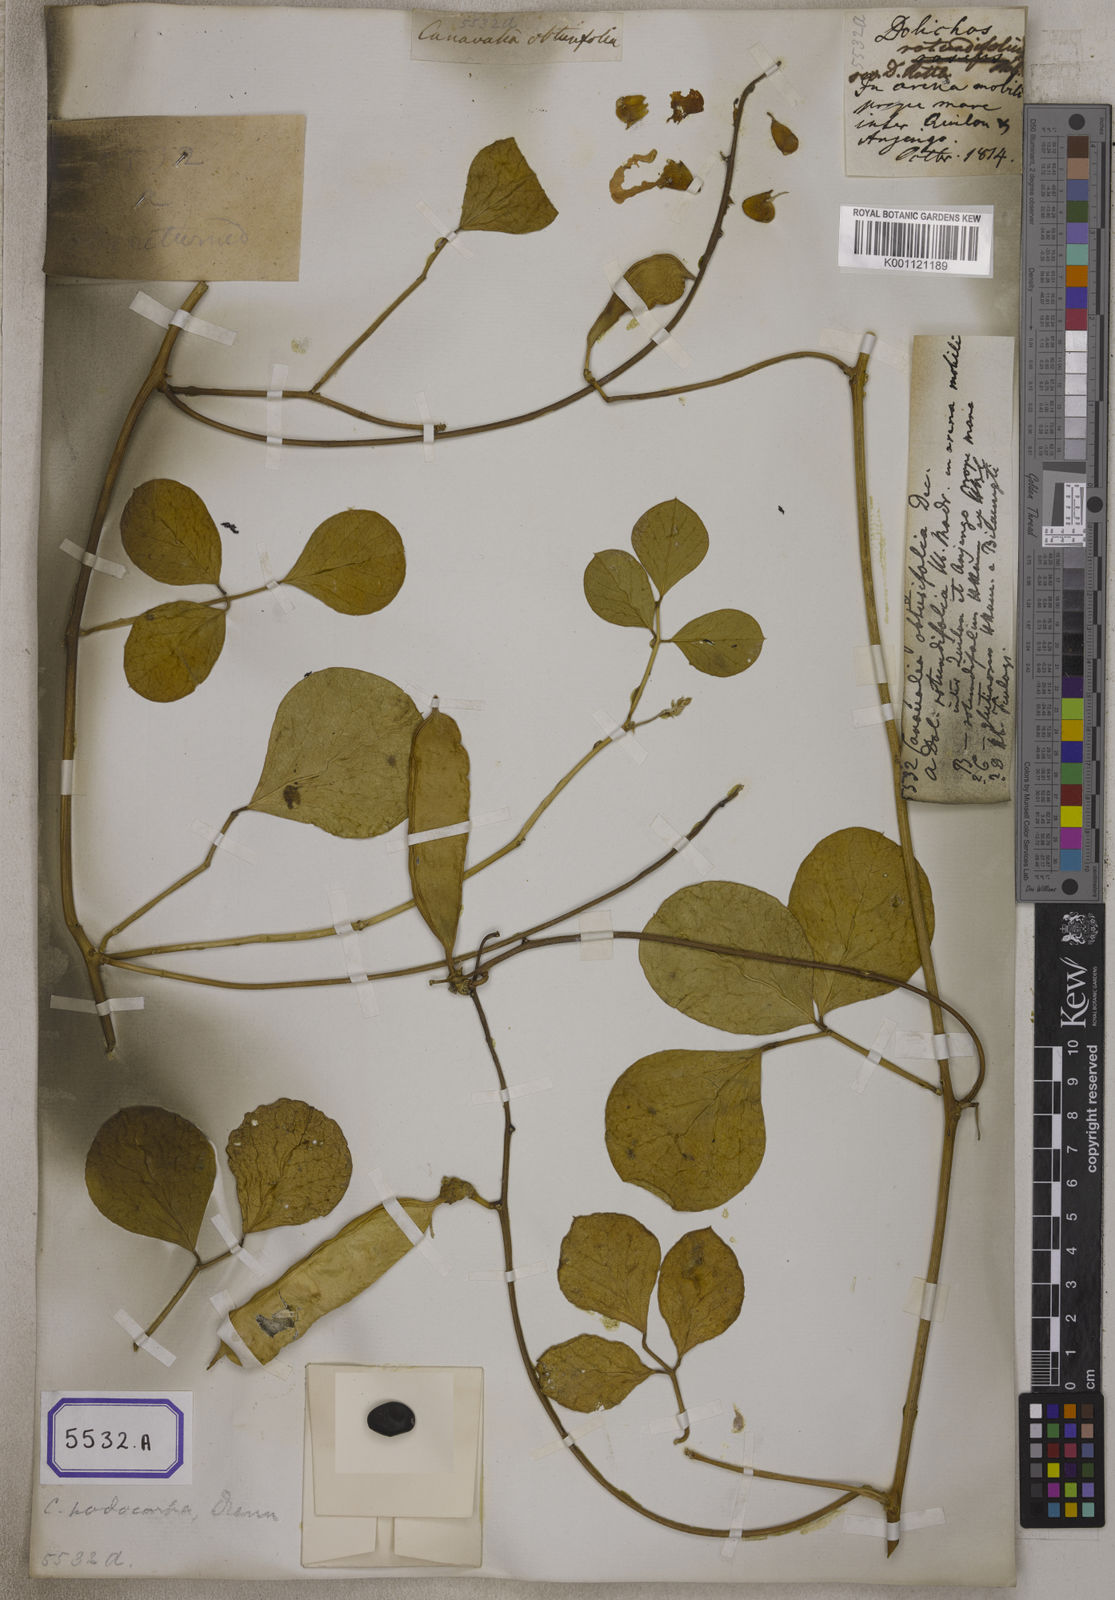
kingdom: Plantae
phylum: Tracheophyta
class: Magnoliopsida
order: Fabales
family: Fabaceae
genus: Canavalia
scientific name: Canavalia rosea
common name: Beach-bean
